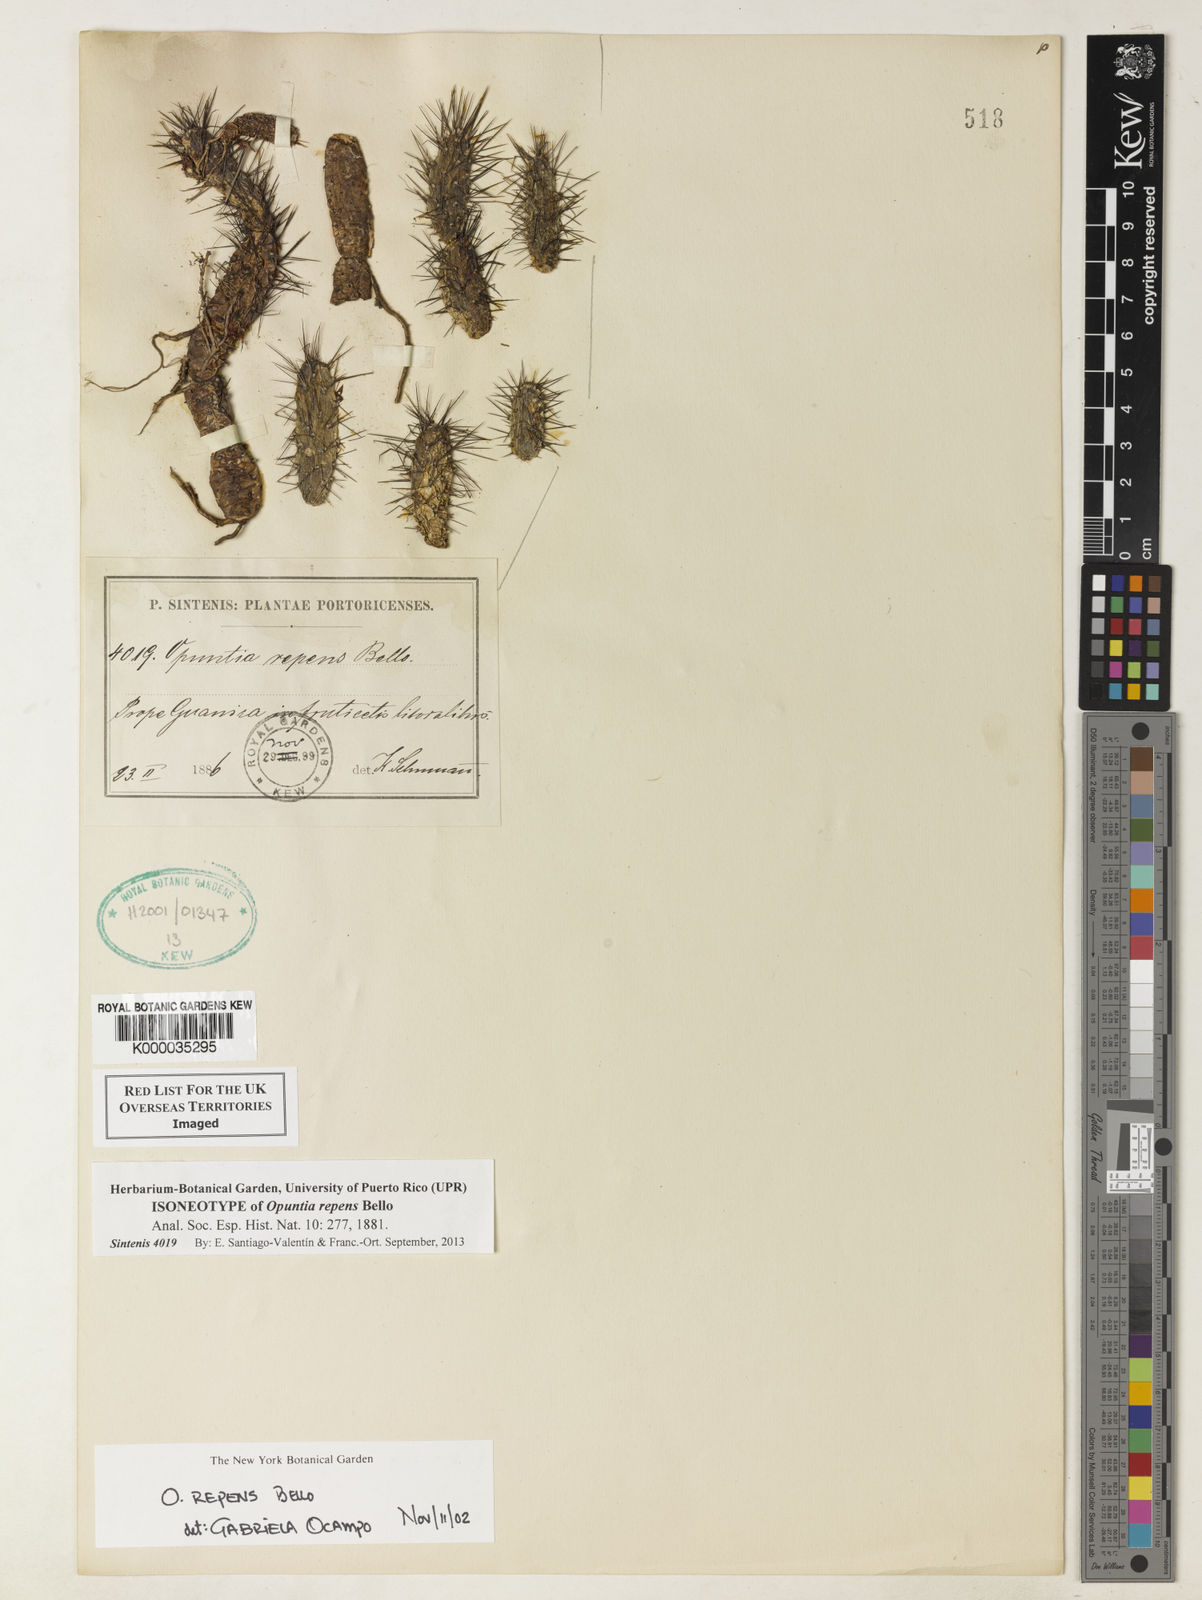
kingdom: Plantae
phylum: Tracheophyta
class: Magnoliopsida
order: Caryophyllales
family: Cactaceae
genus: Opuntia
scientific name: Opuntia repens
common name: Roving pricklypear
